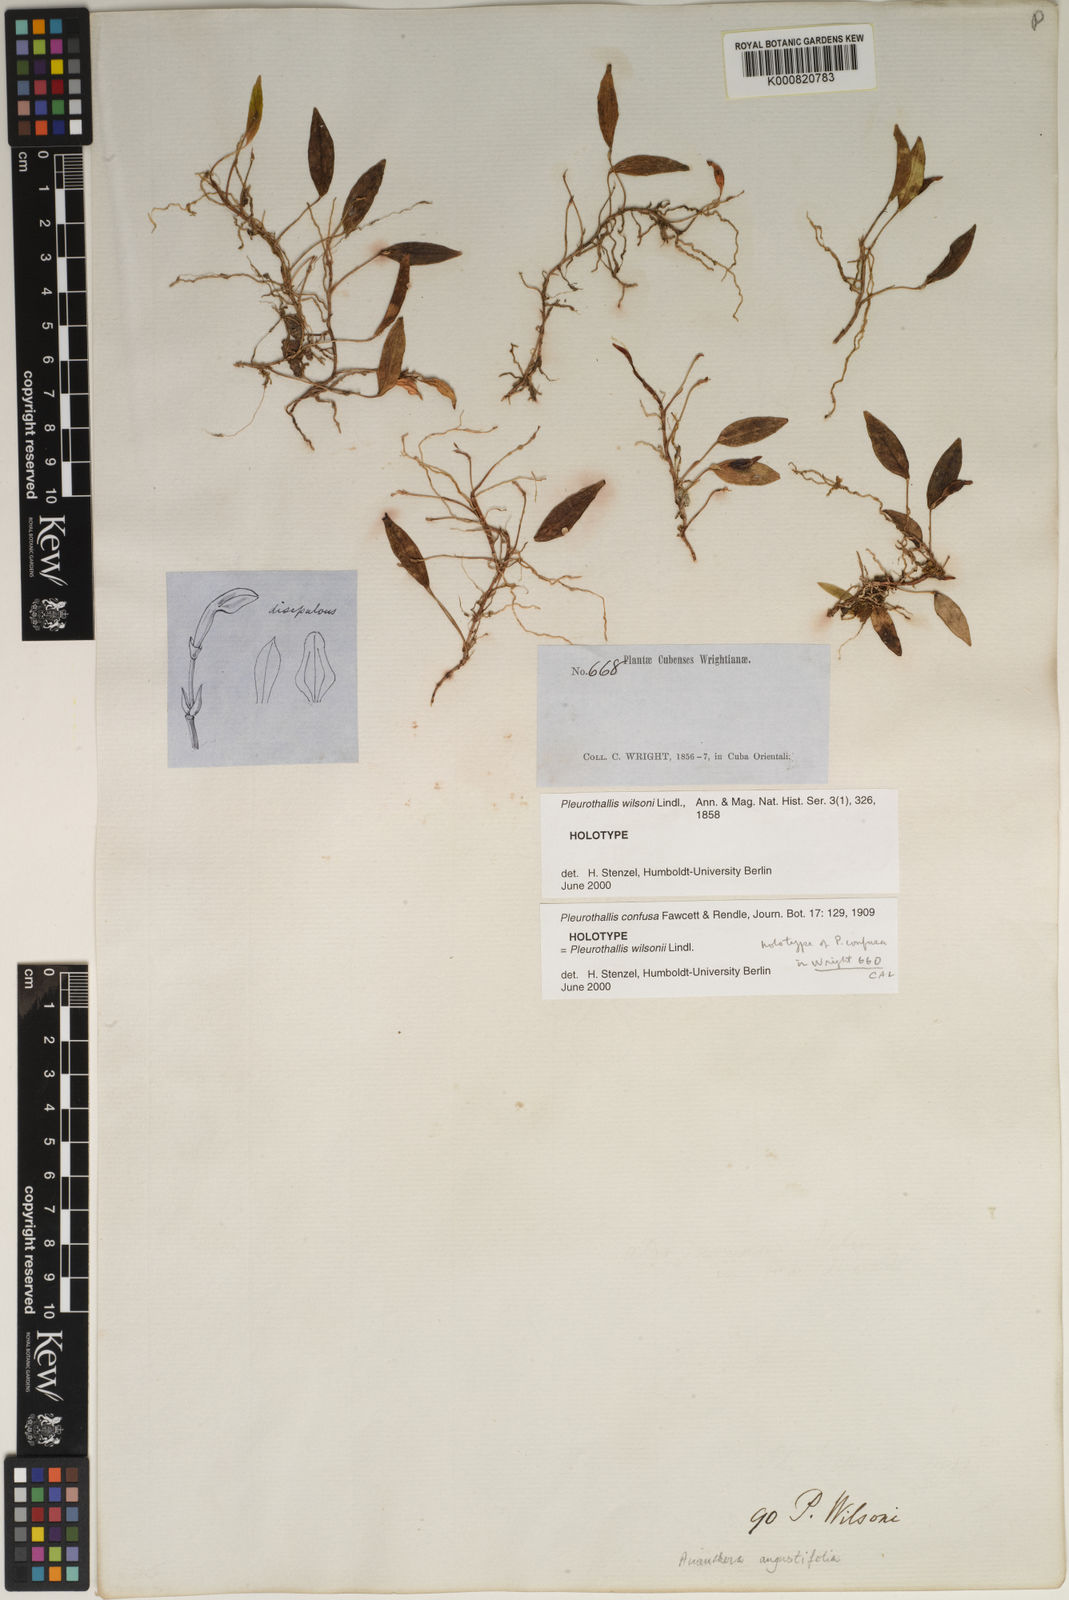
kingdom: Plantae
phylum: Tracheophyta
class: Liliopsida
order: Asparagales
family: Orchidaceae
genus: Acianthera
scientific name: Acianthera angustifolia
